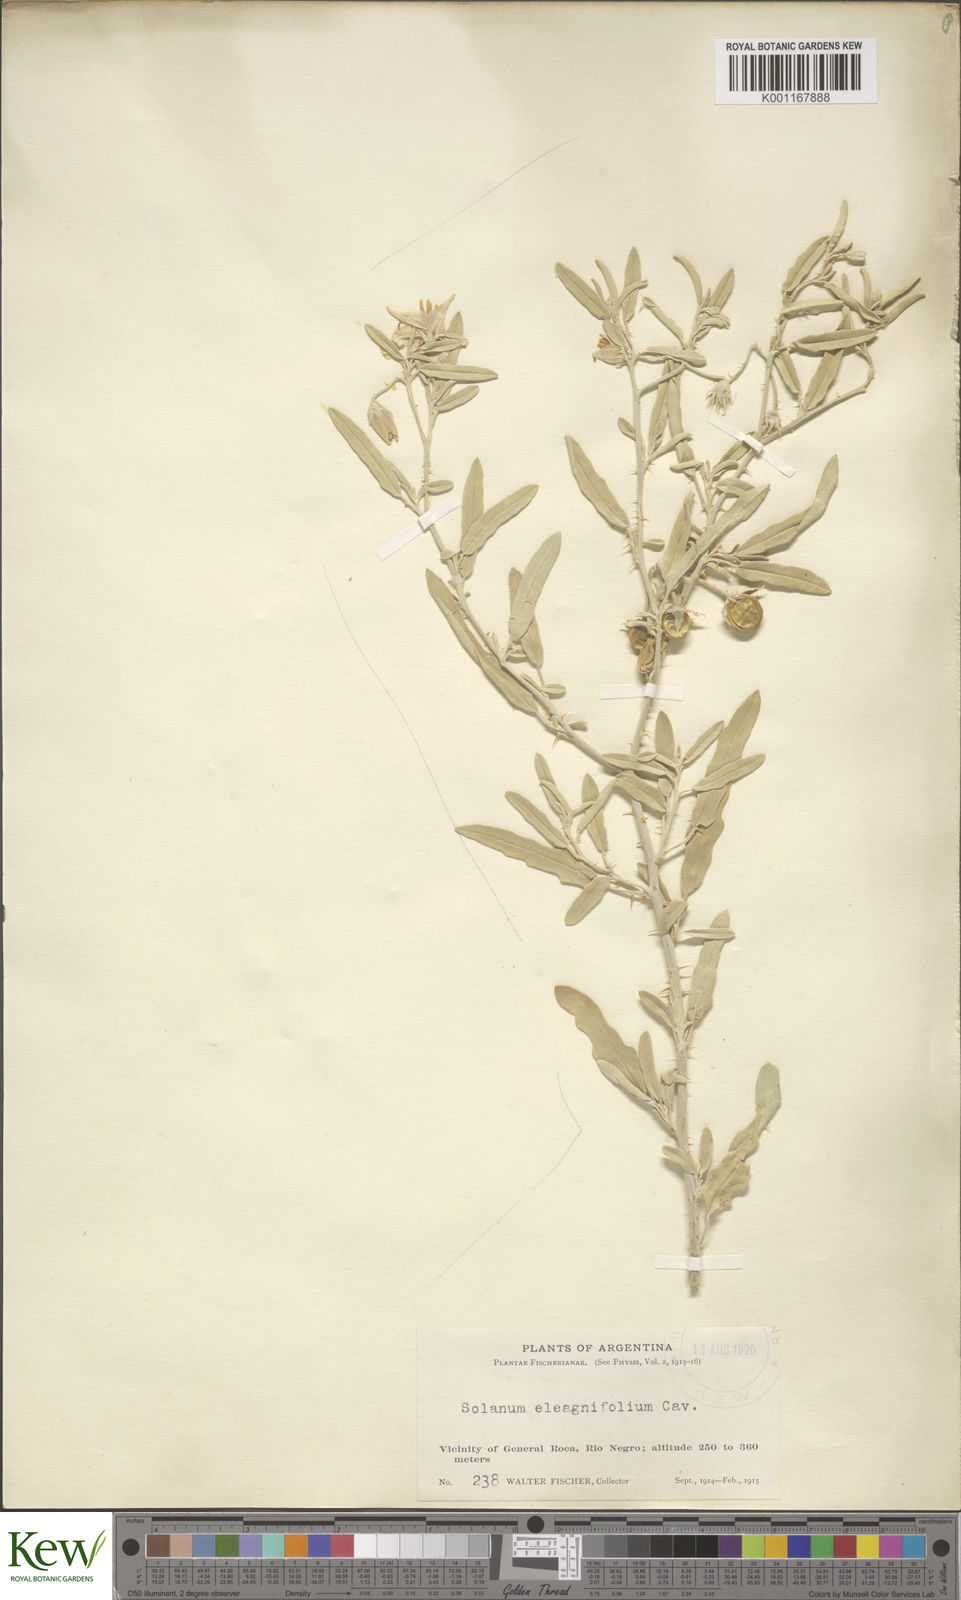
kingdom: Plantae
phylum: Tracheophyta
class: Magnoliopsida
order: Solanales
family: Solanaceae
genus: Solanum
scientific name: Solanum elaeagnifolium
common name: Silverleaf nightshade
